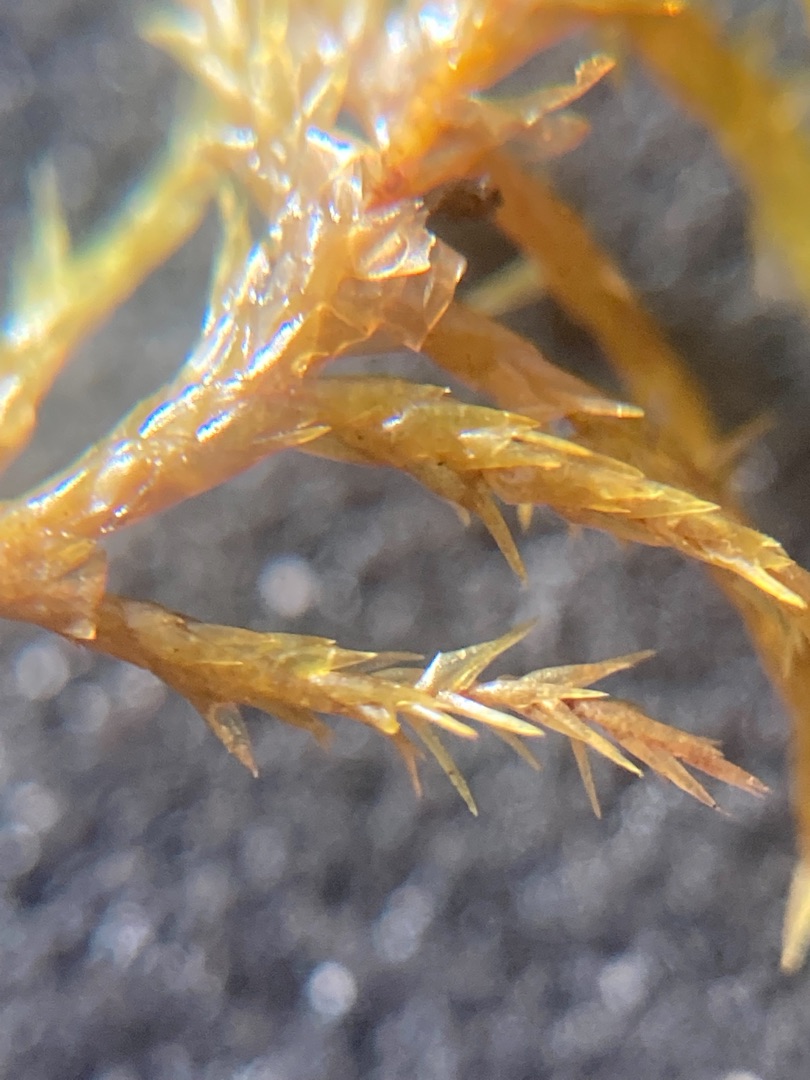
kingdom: Plantae
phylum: Bryophyta
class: Bryopsida
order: Hypnales
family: Pylaisiaceae
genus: Calliergonella
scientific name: Calliergonella cuspidata
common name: Spids spydmos
